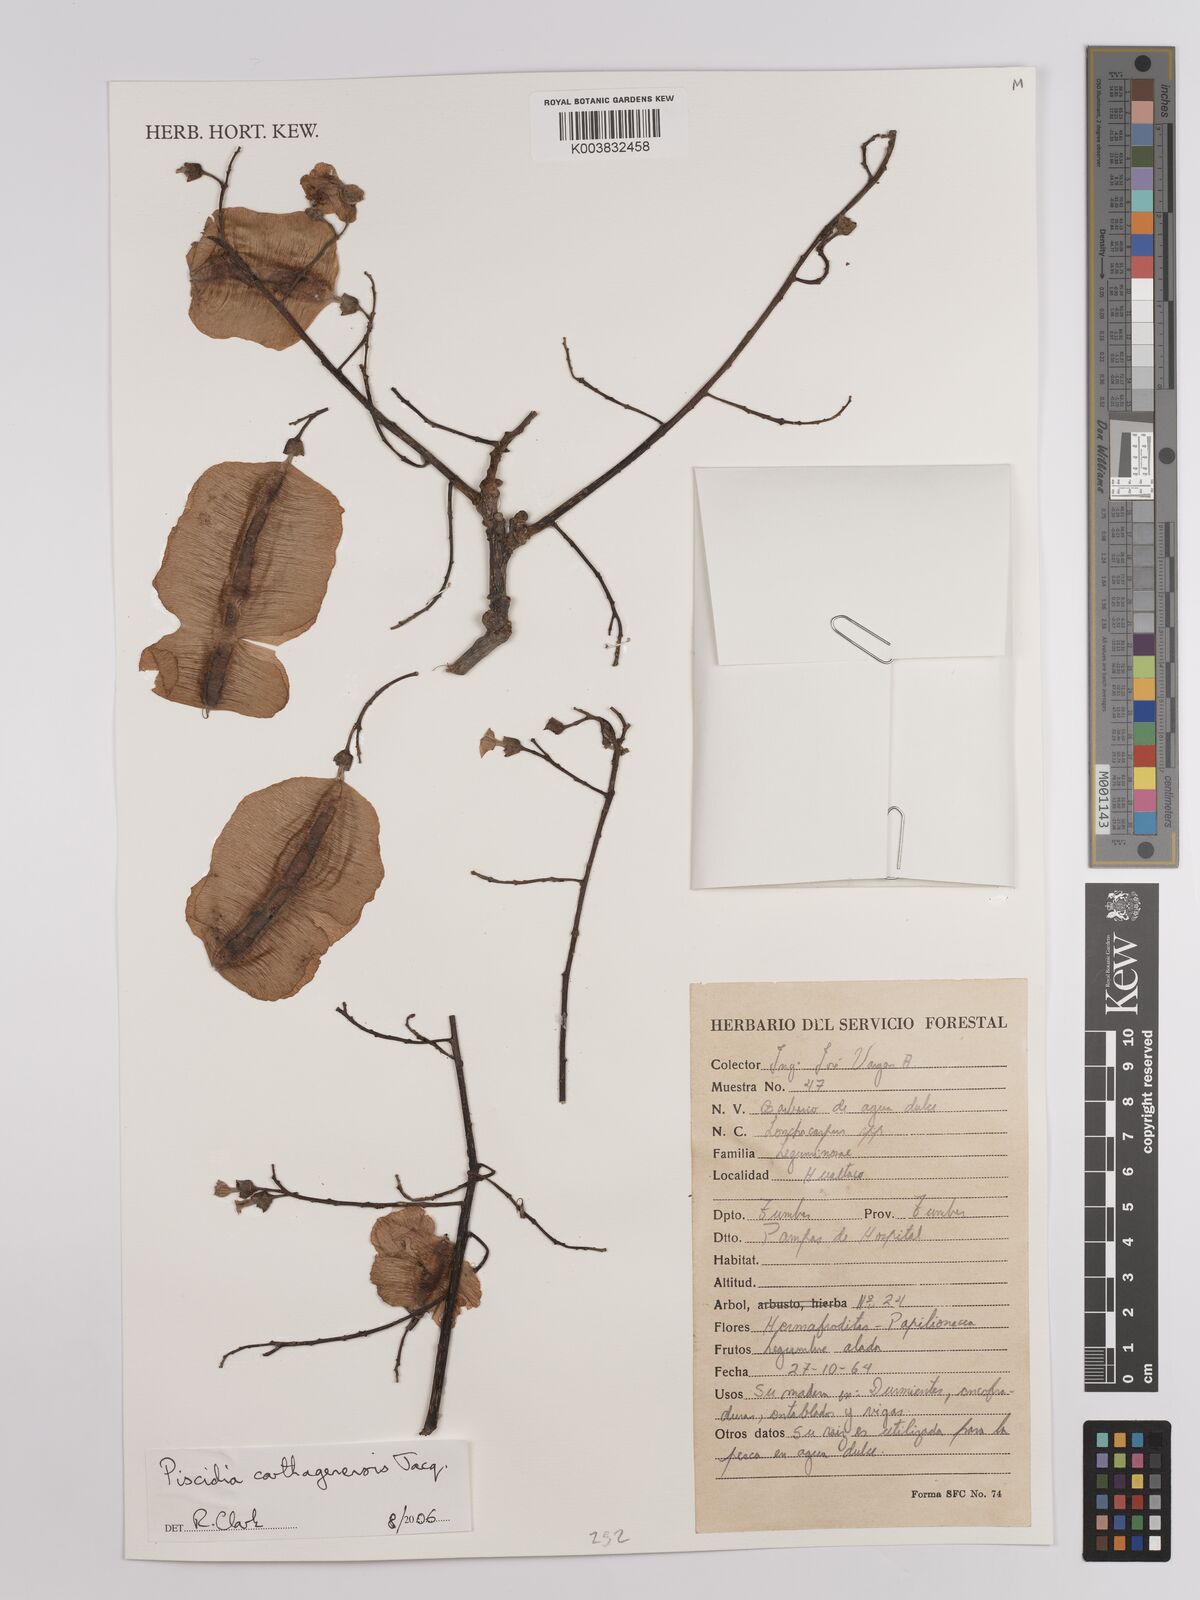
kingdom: Plantae
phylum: Tracheophyta
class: Magnoliopsida
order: Fabales
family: Fabaceae
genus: Piscidia
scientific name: Piscidia carthagenensis
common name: Stinkwood
